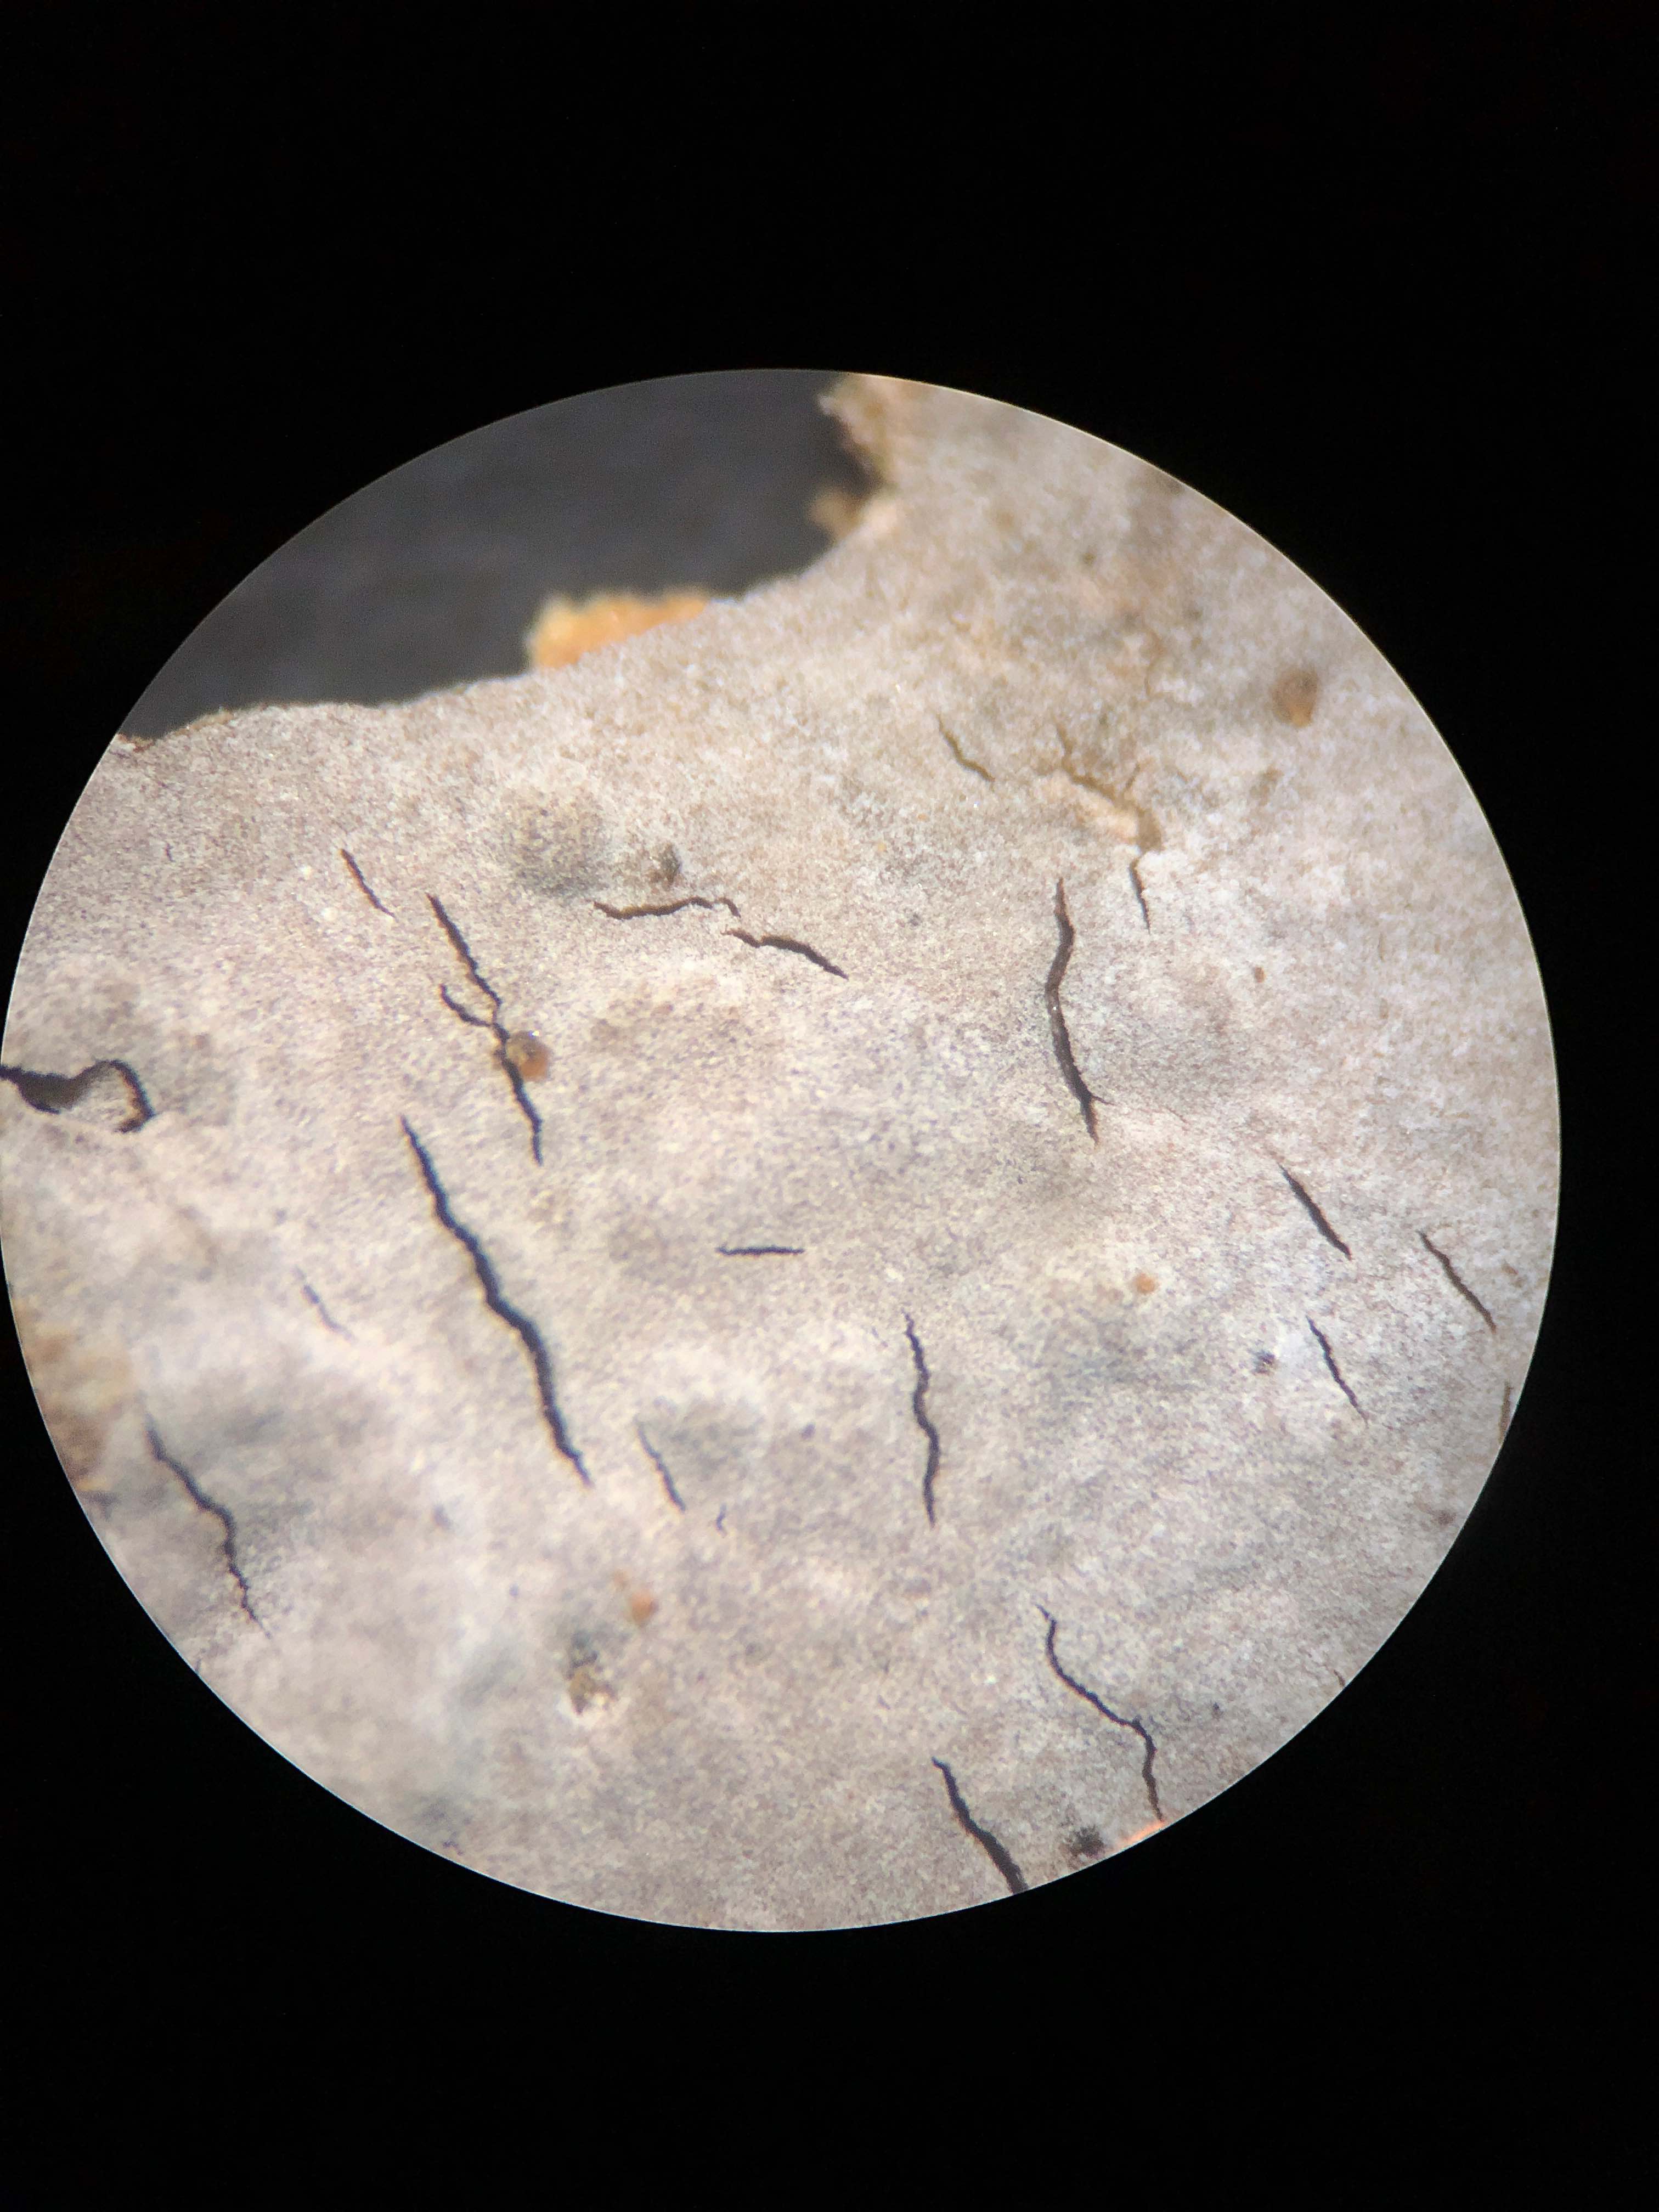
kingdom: Fungi
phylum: Basidiomycota
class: Agaricomycetes
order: Russulales
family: Peniophoraceae
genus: Peniophora
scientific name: Peniophora lycii
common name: grynet voksskind
